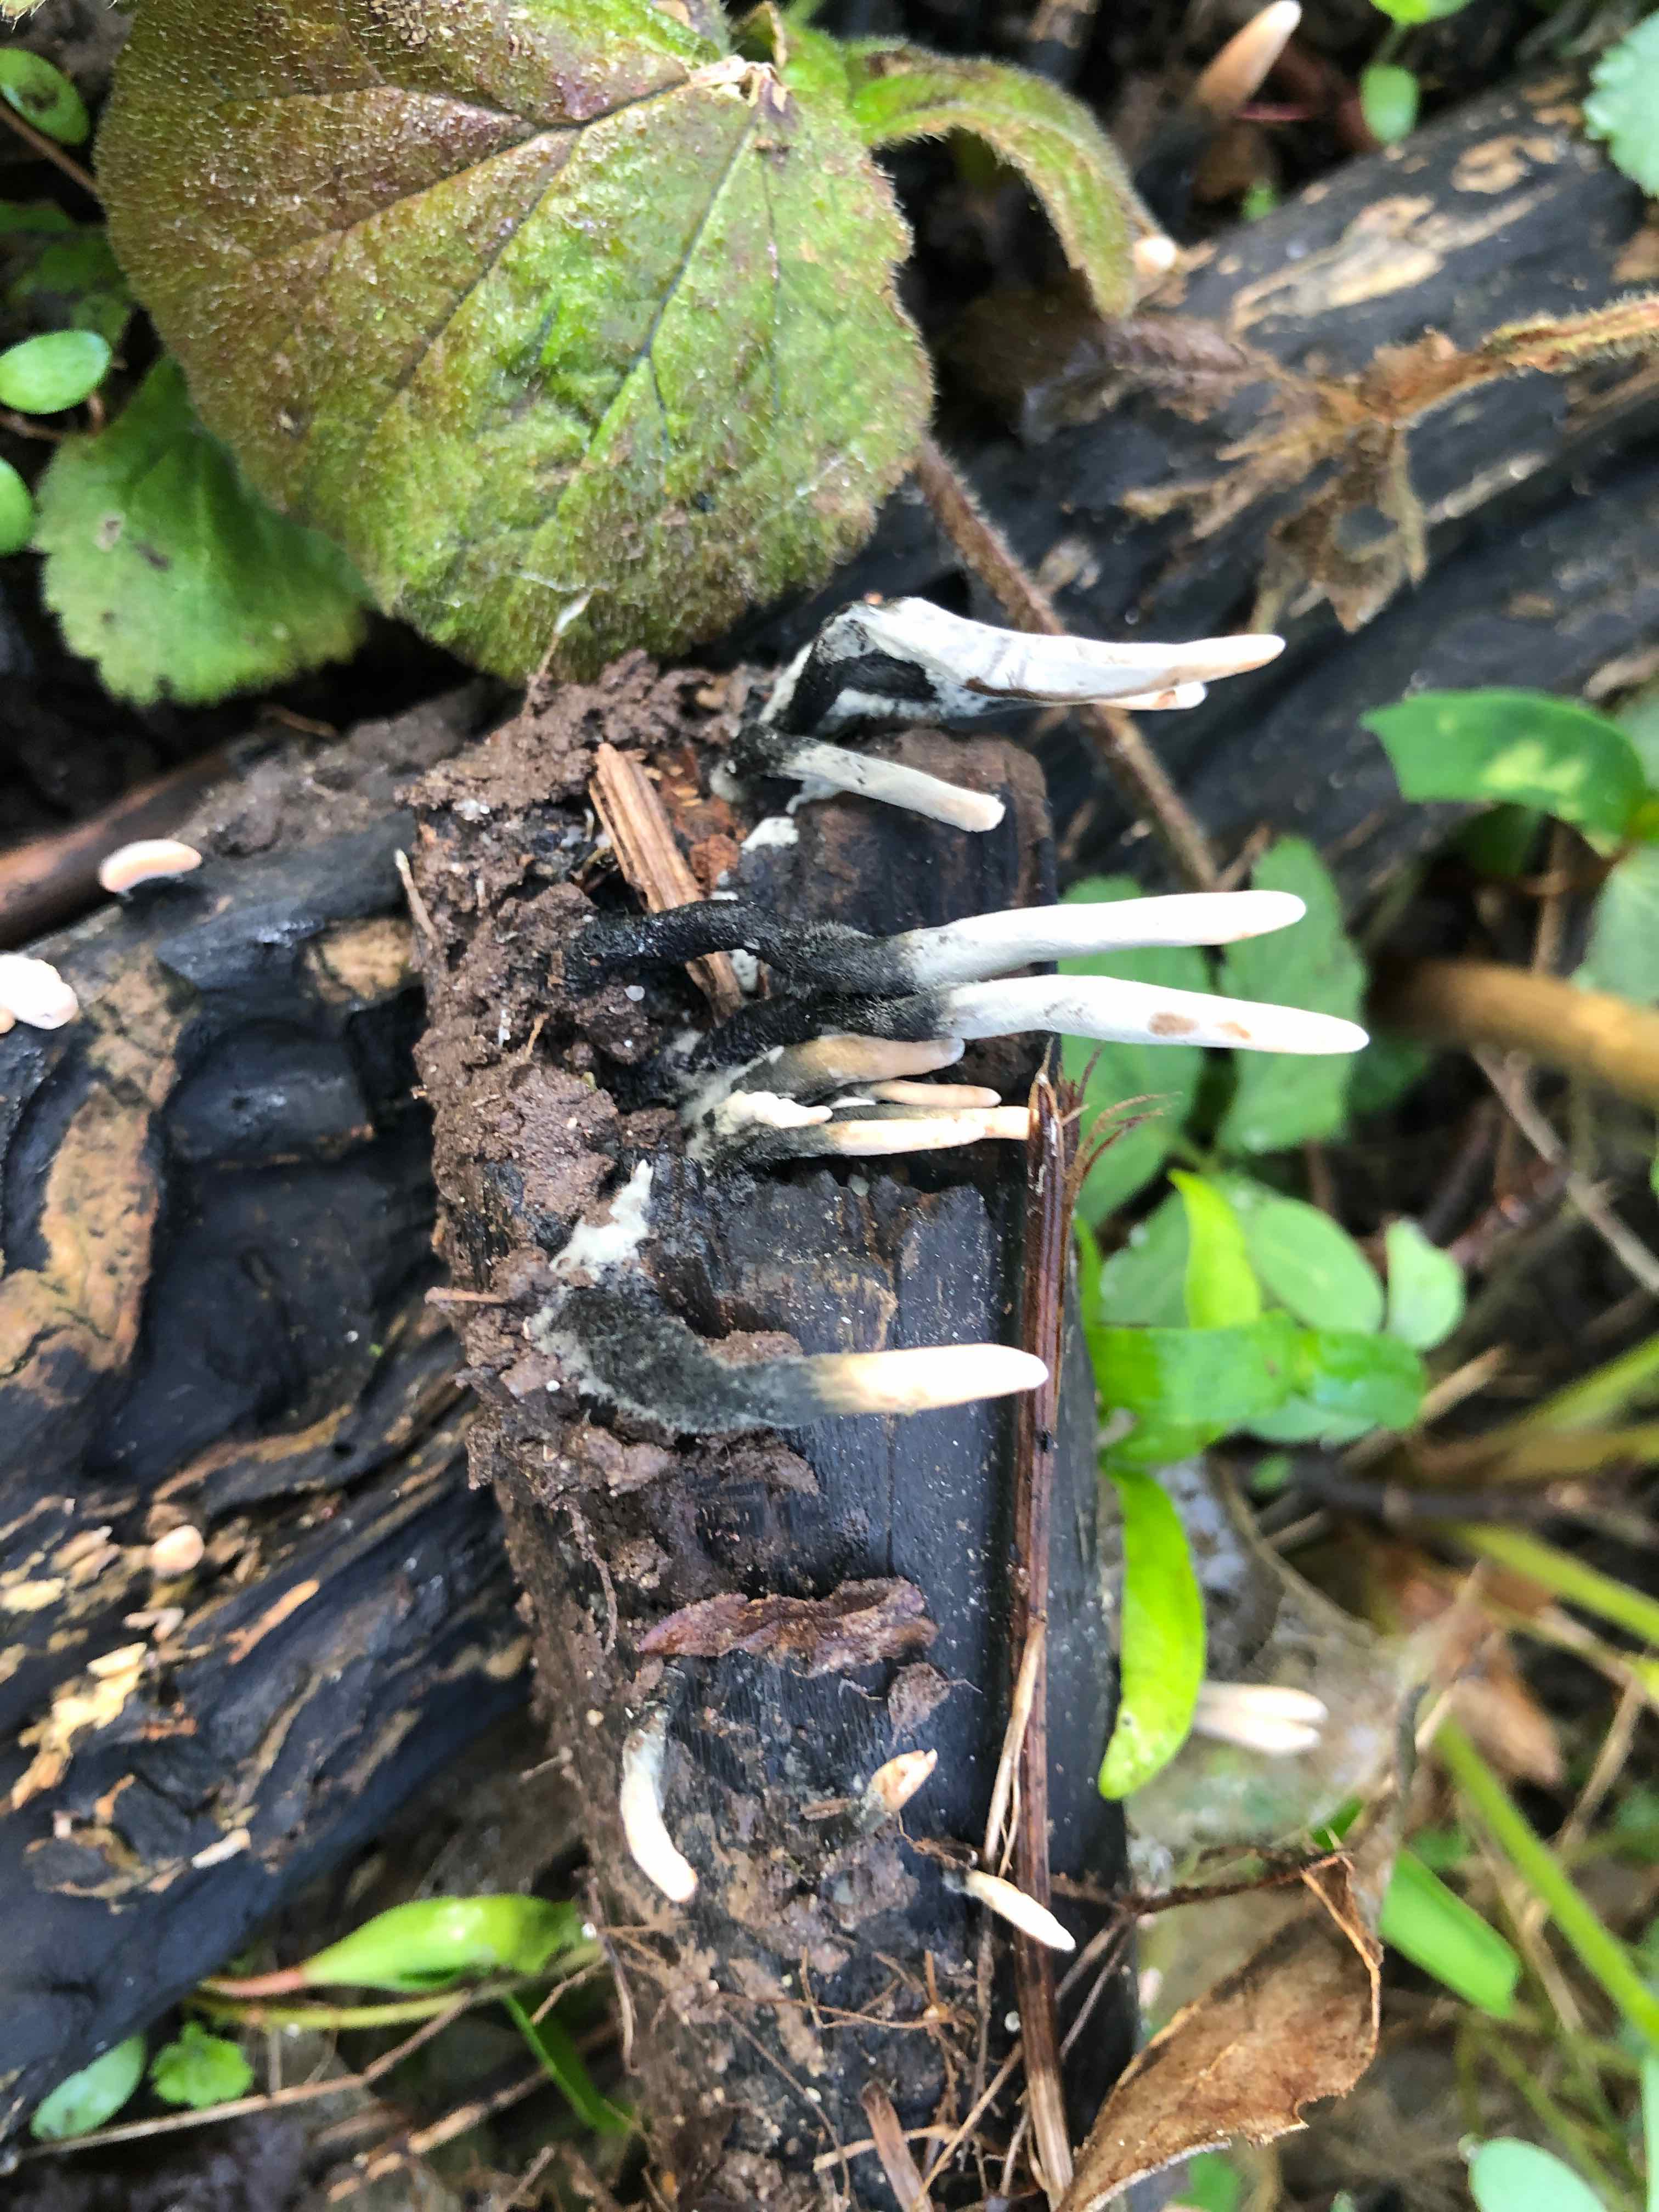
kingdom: Fungi
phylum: Ascomycota
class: Sordariomycetes
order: Xylariales
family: Xylariaceae
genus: Xylaria
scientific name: Xylaria hypoxylon
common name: grenet stødsvamp
